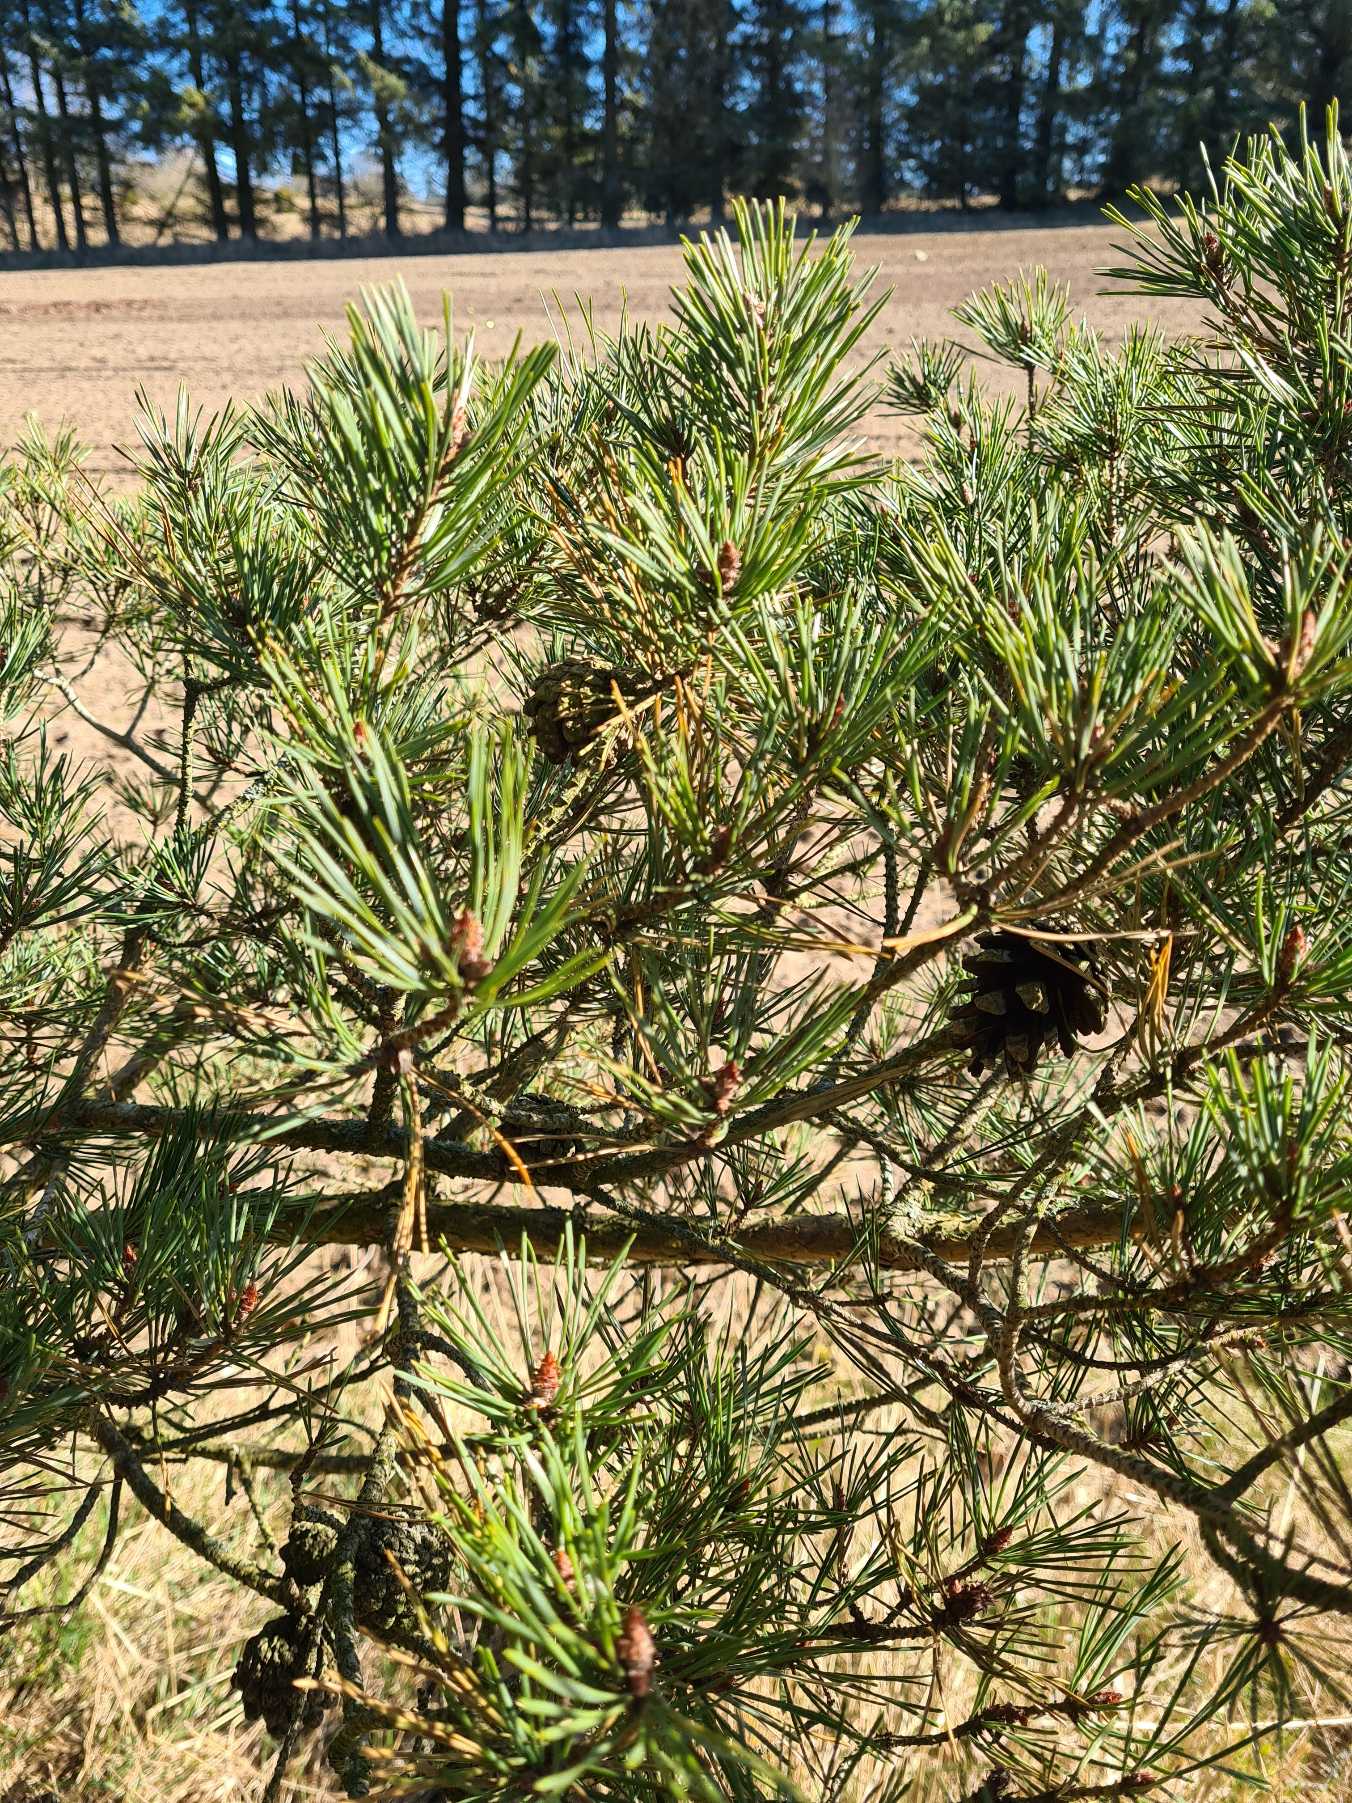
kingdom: Plantae
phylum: Tracheophyta
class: Pinopsida
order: Pinales
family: Pinaceae
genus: Pinus
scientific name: Pinus sylvestris
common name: Skov-fyr
